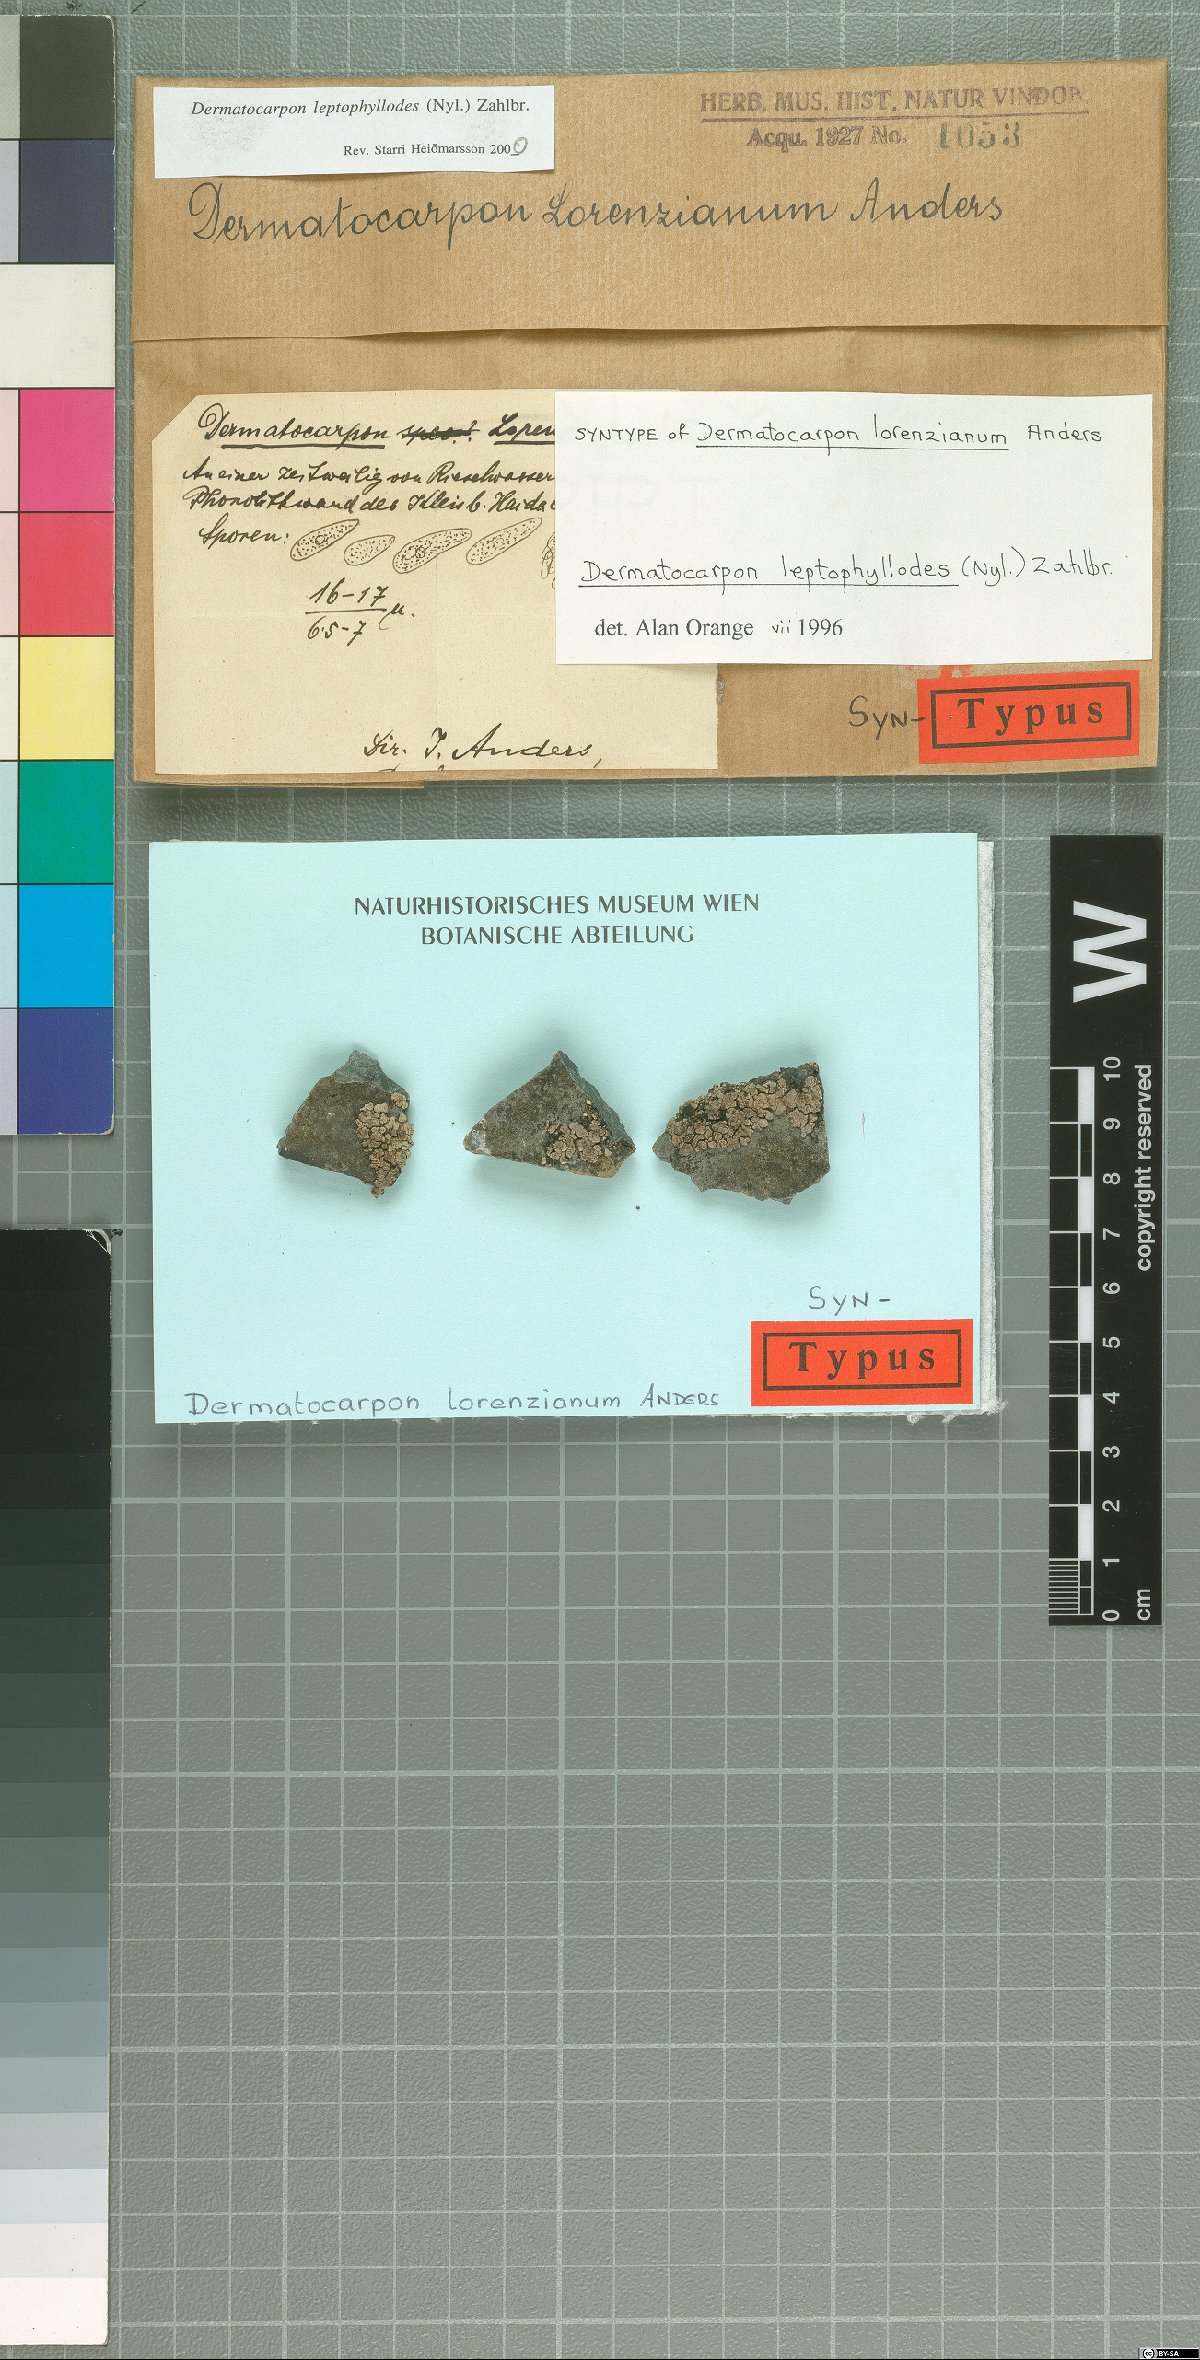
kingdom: Fungi
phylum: Ascomycota
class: Eurotiomycetes
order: Verrucariales
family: Verrucariaceae
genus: Dermatocarpon
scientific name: Dermatocarpon leptophyllodes
